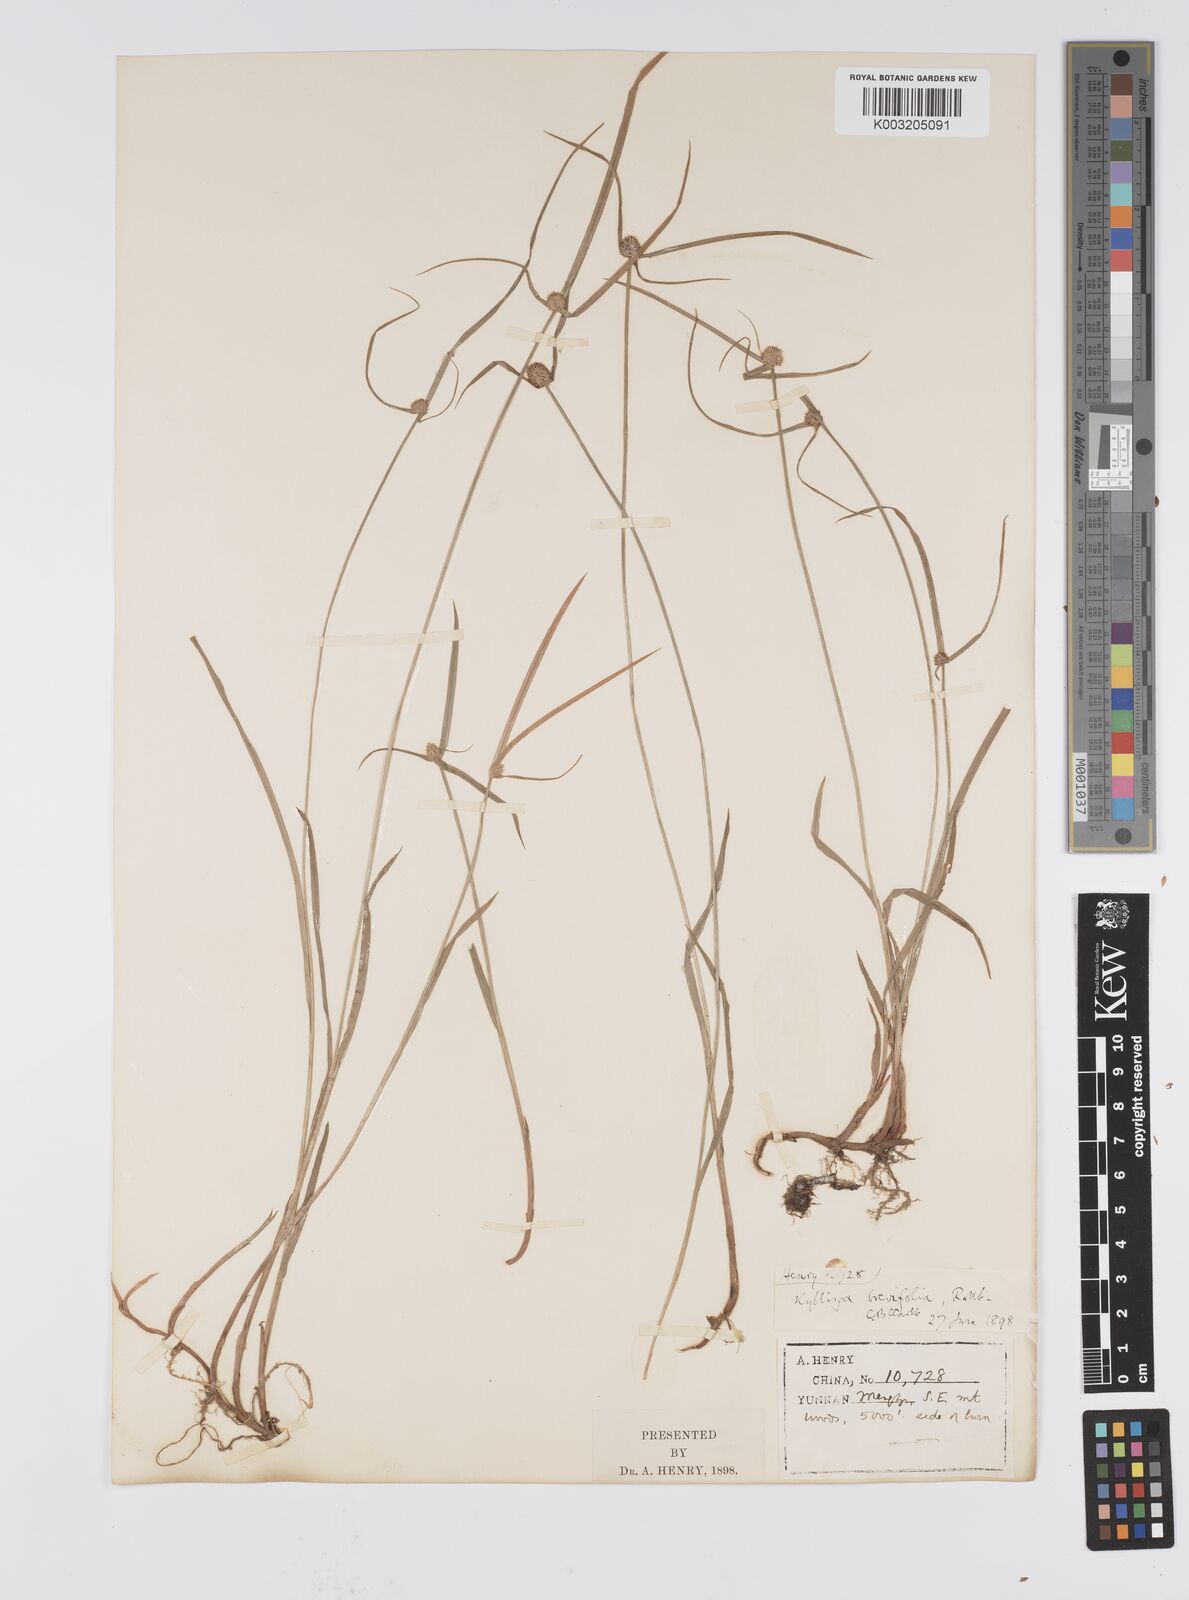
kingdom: Plantae
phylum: Tracheophyta
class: Liliopsida
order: Poales
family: Cyperaceae
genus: Cyperus
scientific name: Cyperus brevifolius
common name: Globe kyllinga
